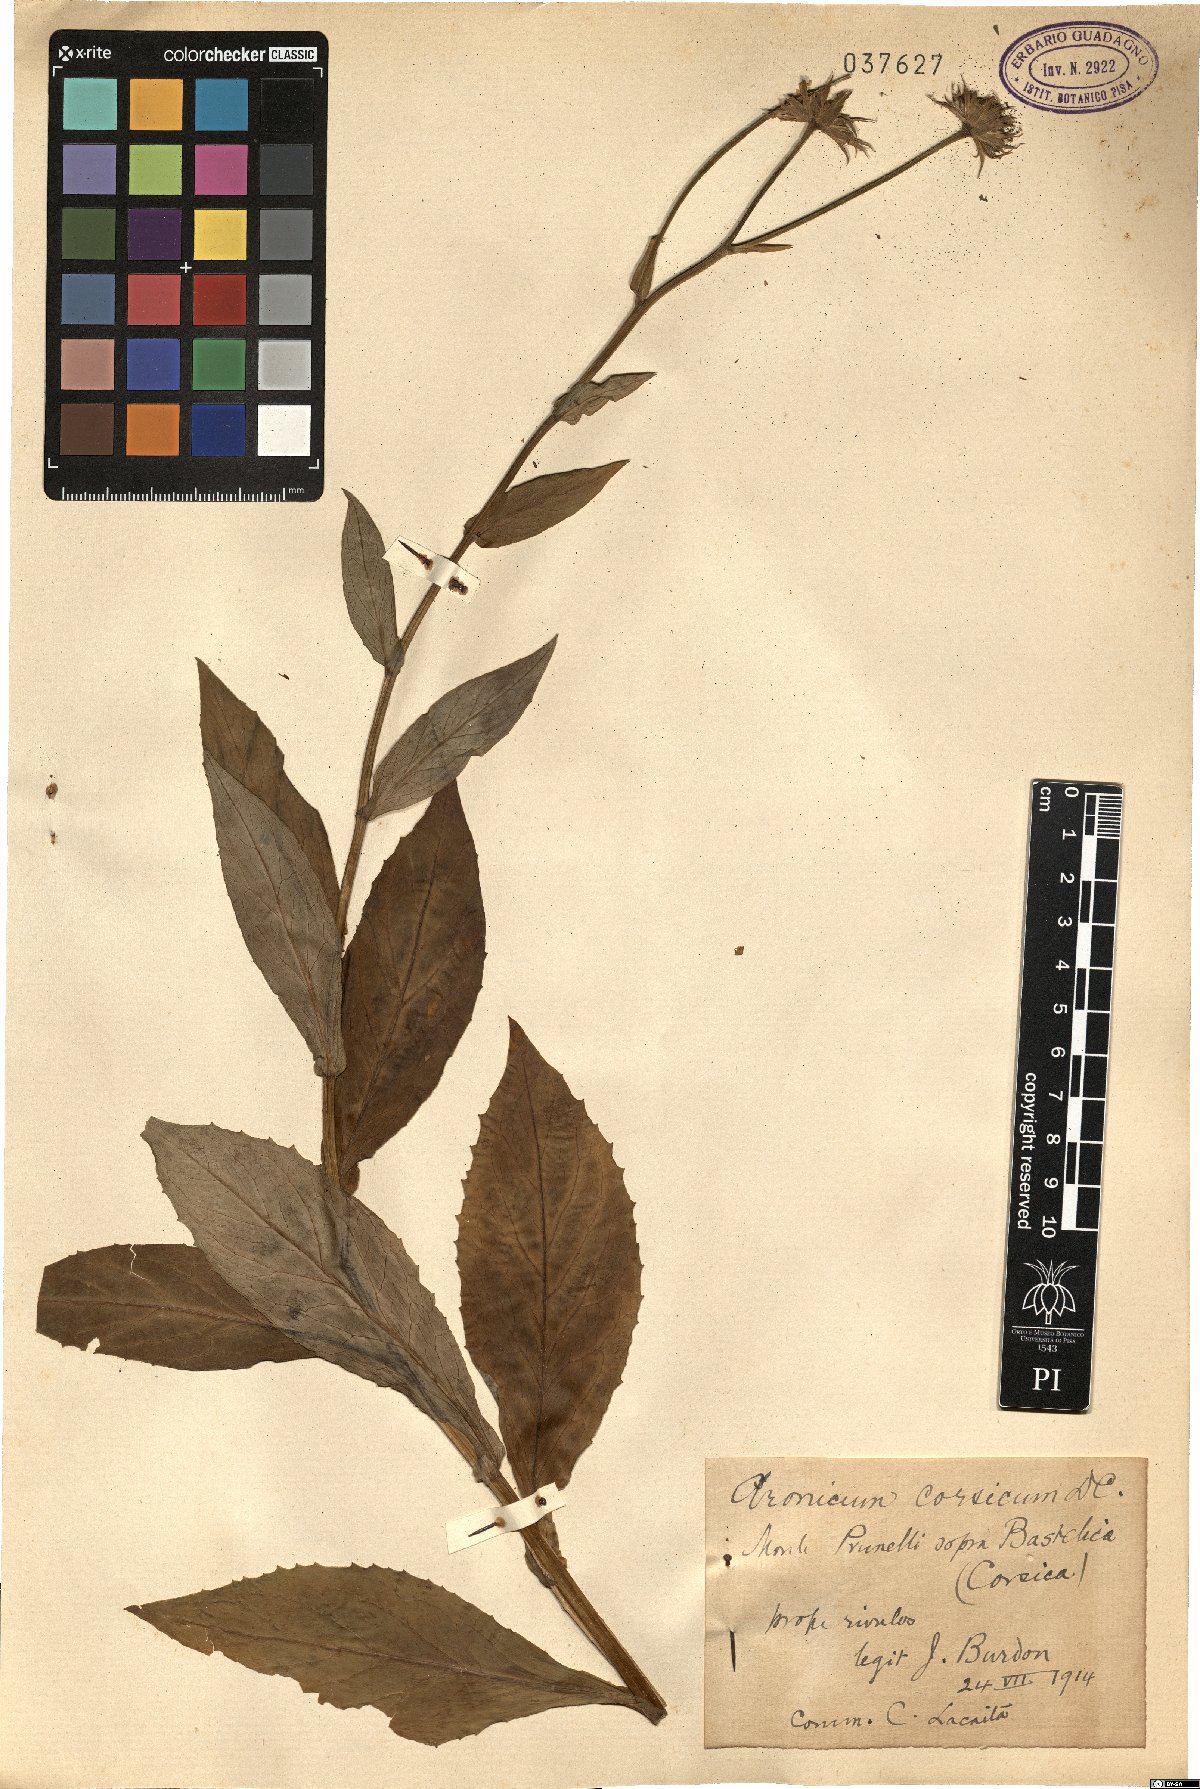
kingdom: Plantae
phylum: Tracheophyta
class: Magnoliopsida
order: Asterales
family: Asteraceae
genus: Doronicum
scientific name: Doronicum corsicum
